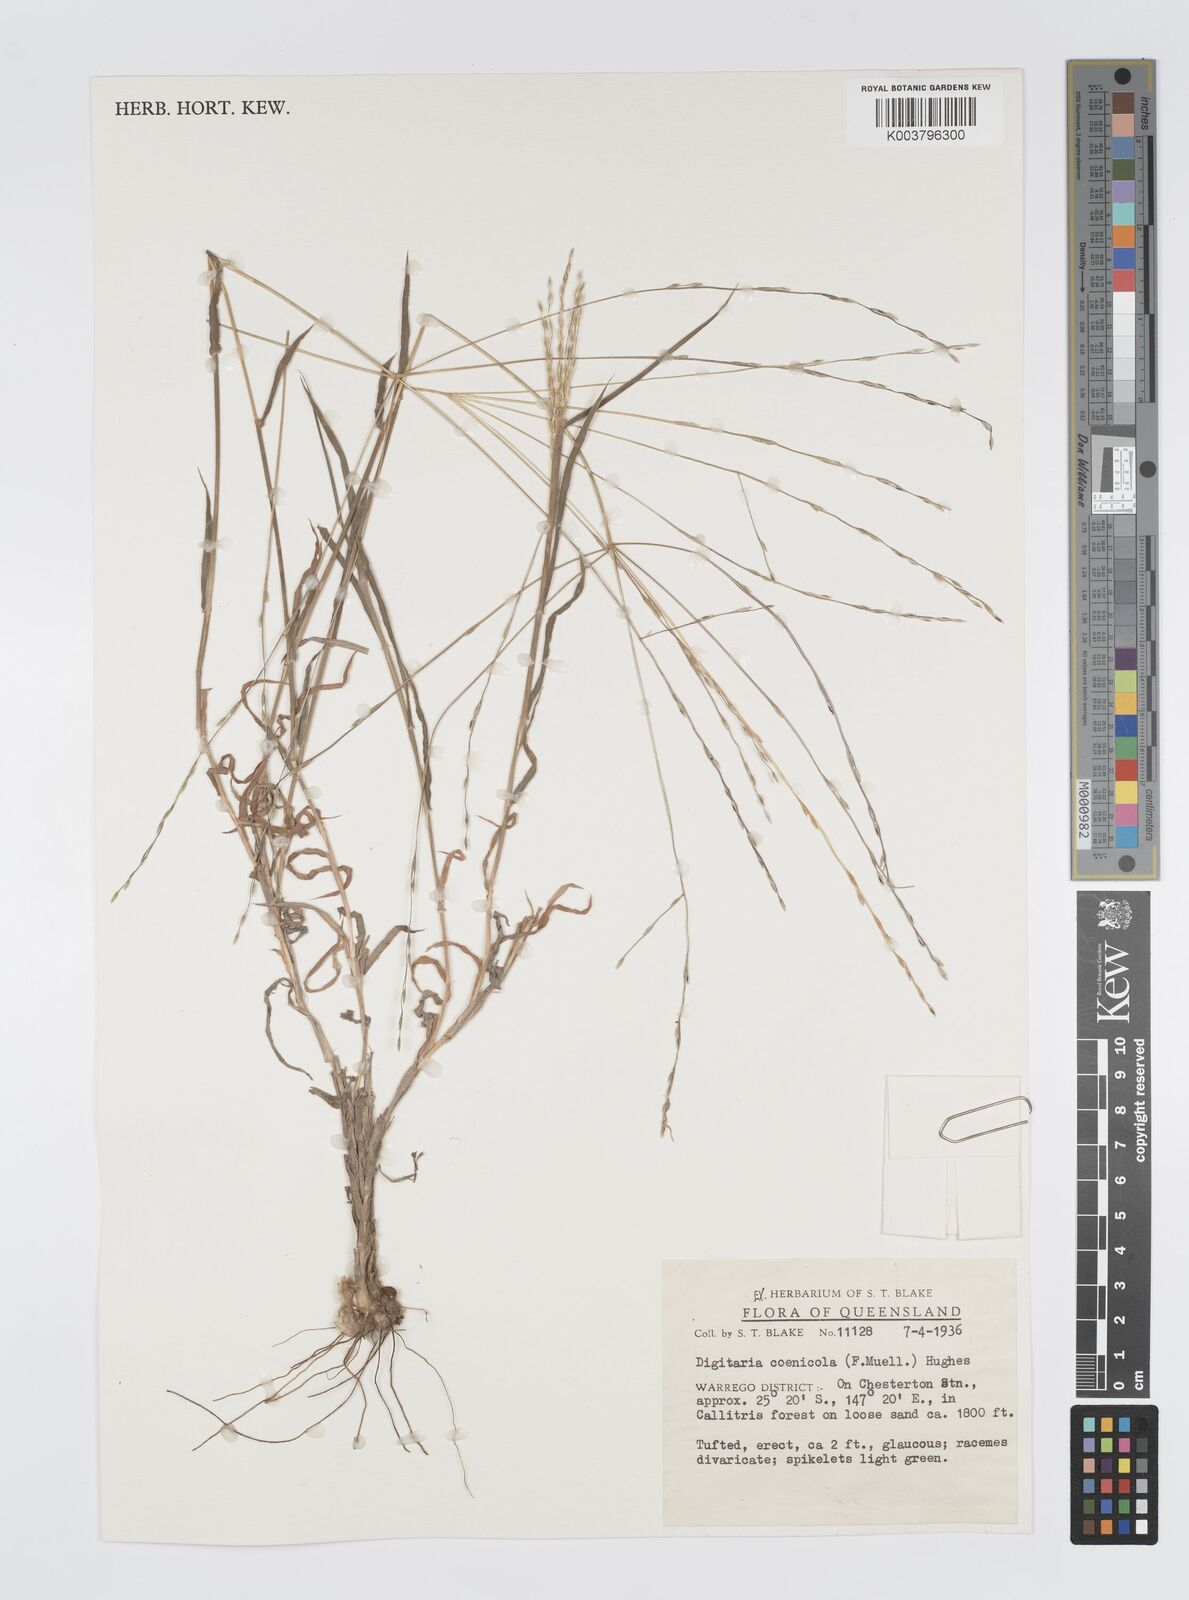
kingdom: Plantae
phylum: Tracheophyta
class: Liliopsida
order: Poales
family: Poaceae
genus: Digitaria
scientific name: Digitaria coenicola
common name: Kanta grass
